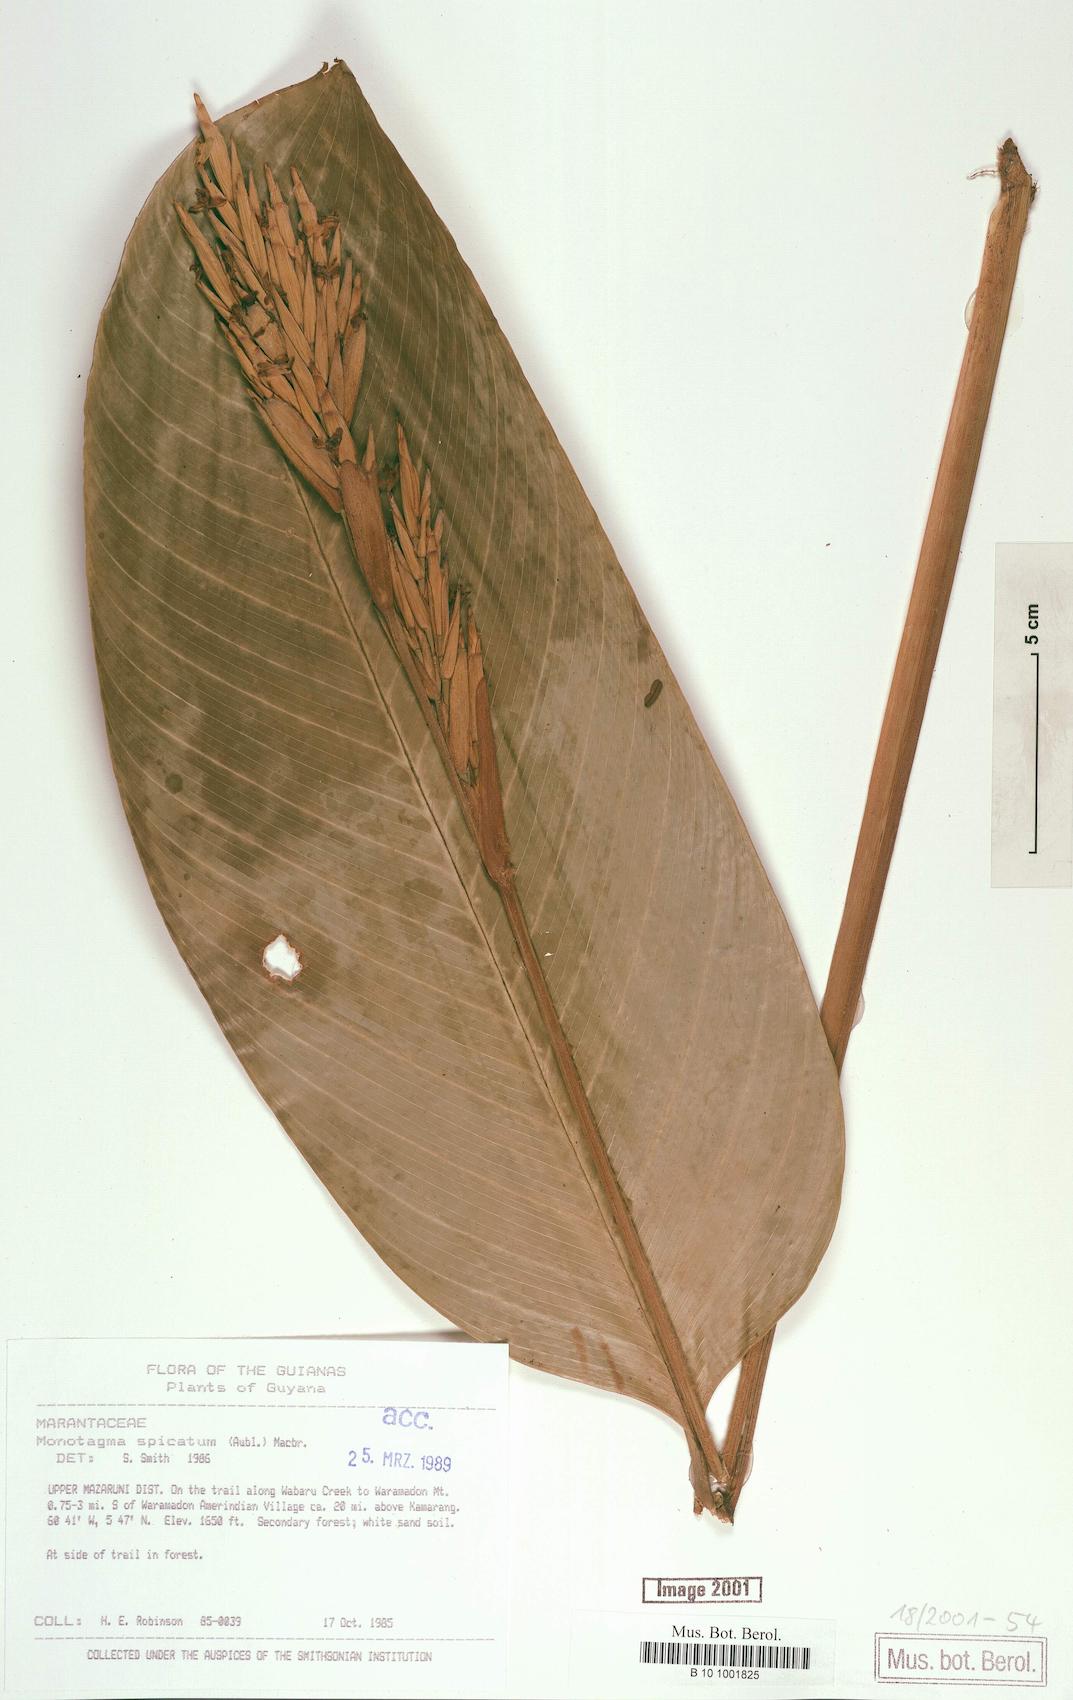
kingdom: Plantae
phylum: Tracheophyta
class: Liliopsida
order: Zingiberales
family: Marantaceae
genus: Monotagma
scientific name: Monotagma spicatum
